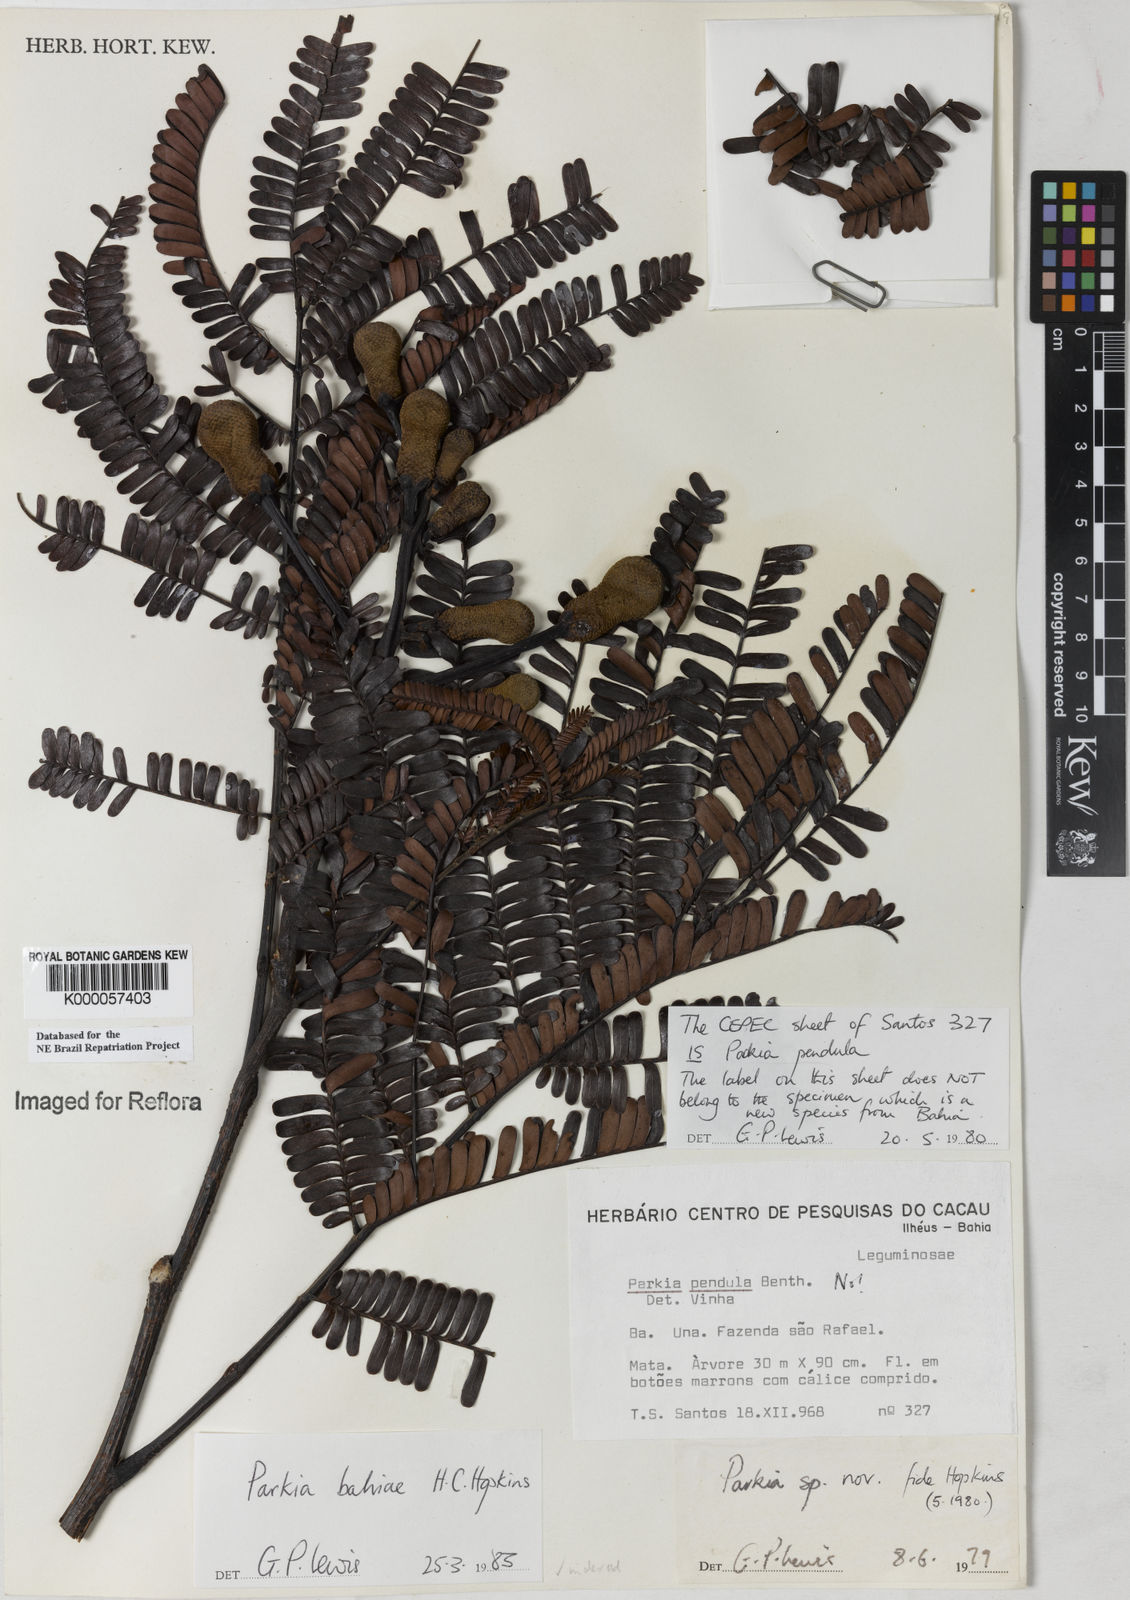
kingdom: Plantae
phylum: Tracheophyta
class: Magnoliopsida
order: Fabales
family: Fabaceae
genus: Parkia
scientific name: Parkia bahiae
